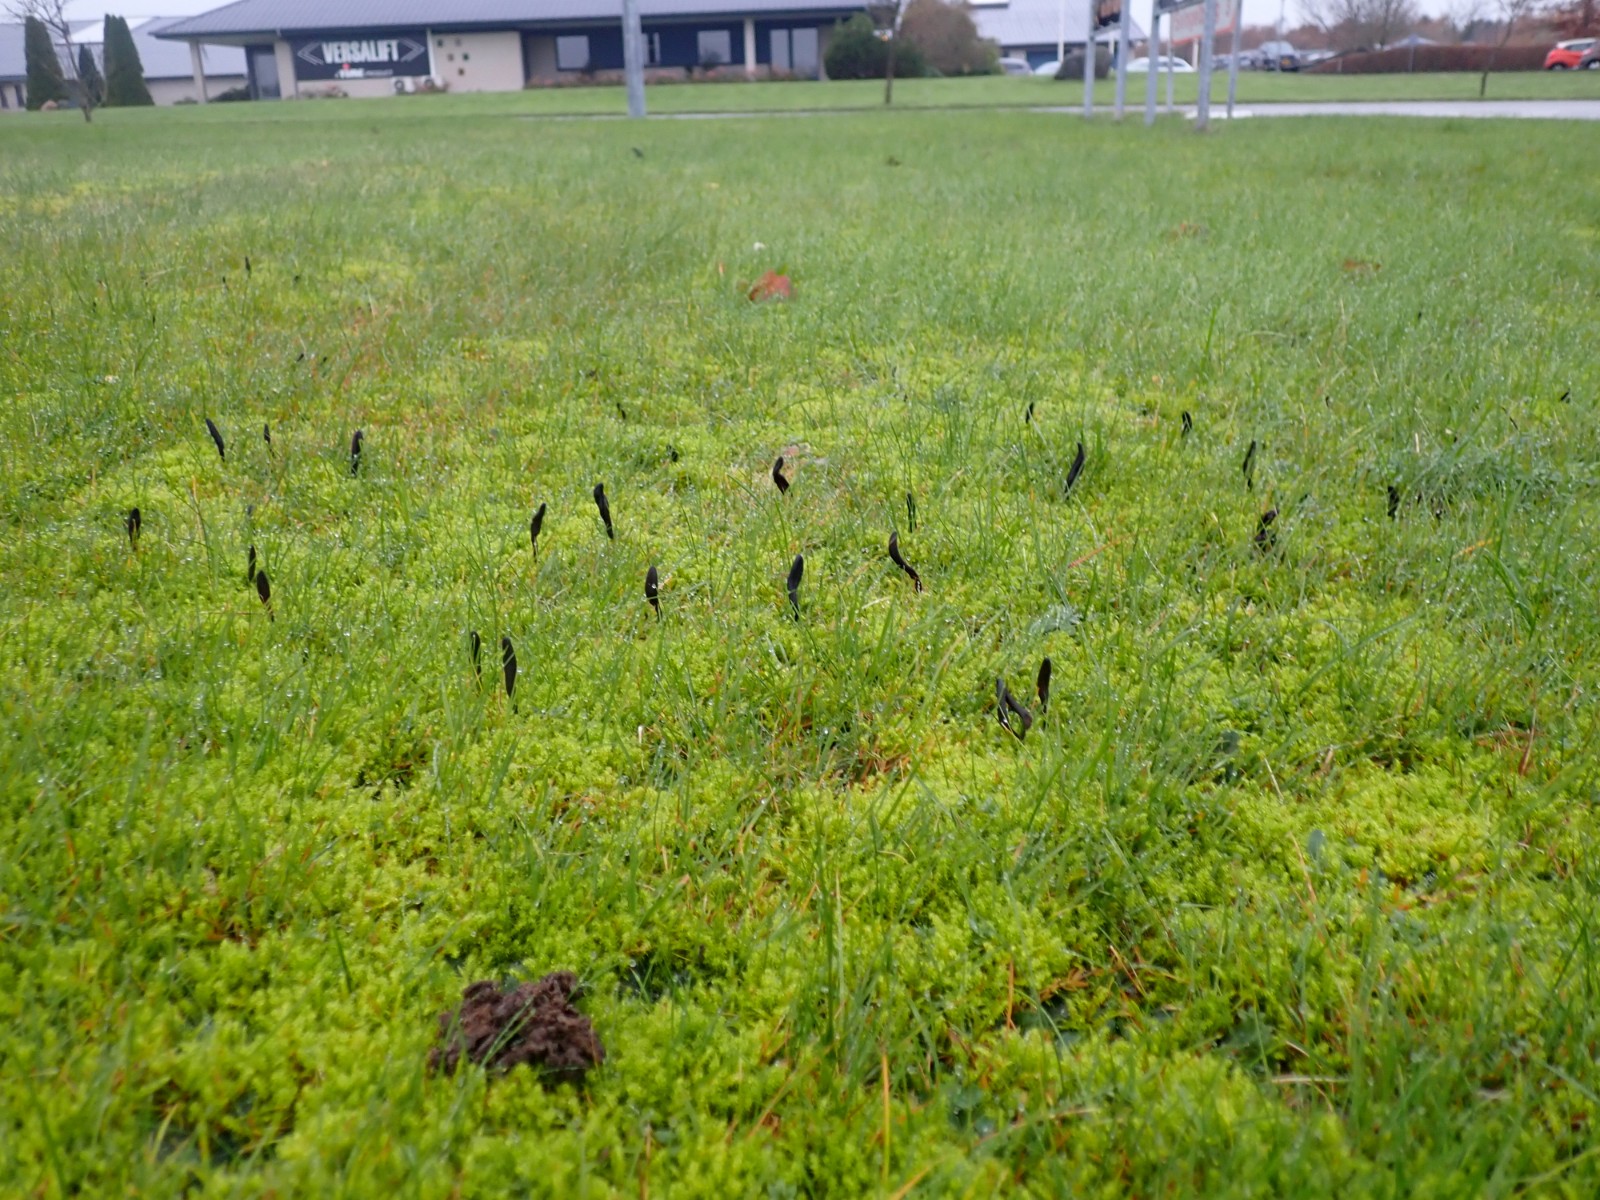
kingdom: Fungi
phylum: Ascomycota
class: Geoglossomycetes
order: Geoglossales
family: Geoglossaceae
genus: Geoglossum
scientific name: Geoglossum fallax
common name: småskællet jordtunge
